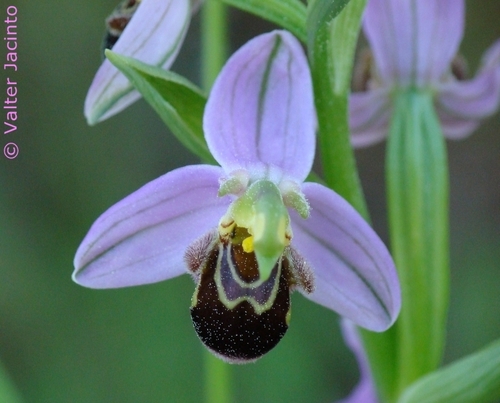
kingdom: Plantae
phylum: Tracheophyta
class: Liliopsida
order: Asparagales
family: Orchidaceae
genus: Ophrys
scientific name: Ophrys apifera
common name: Bee orchid
